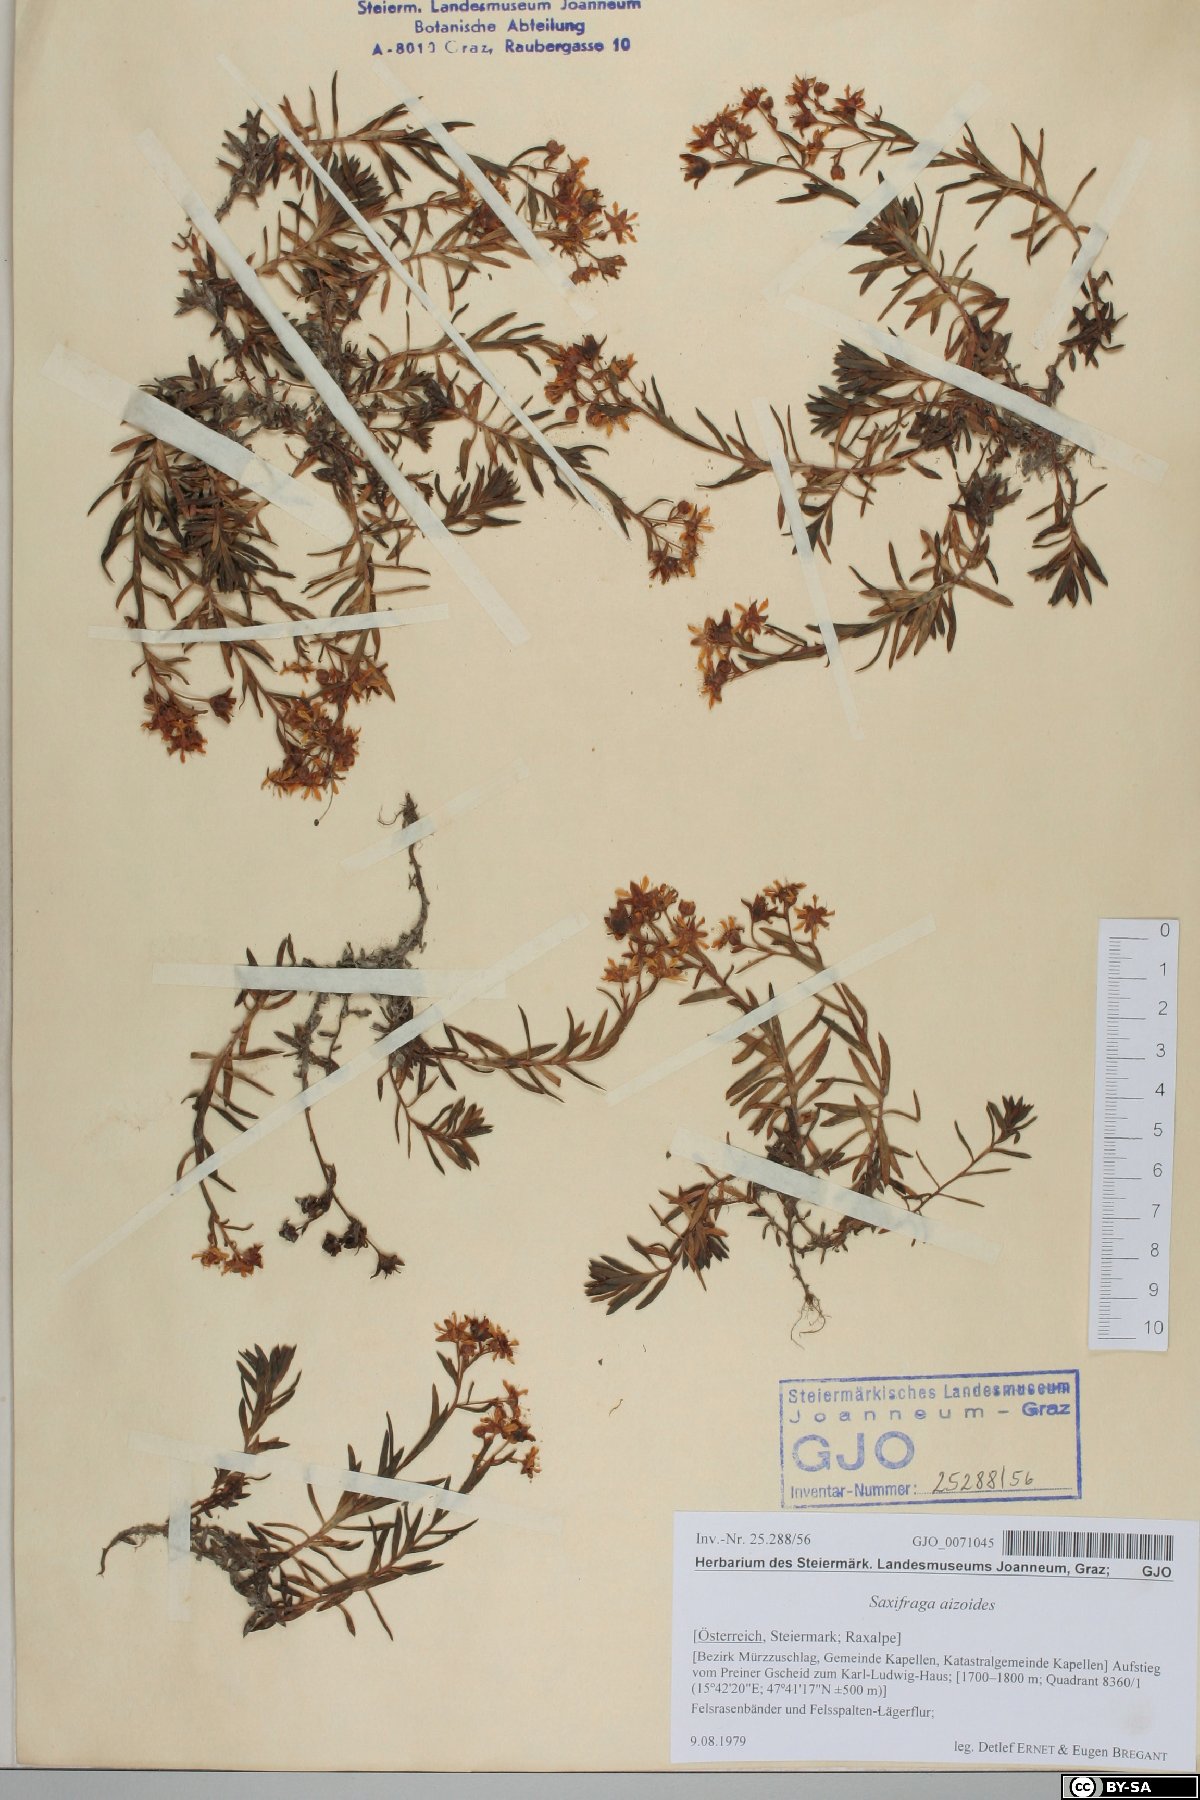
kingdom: Plantae
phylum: Tracheophyta
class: Magnoliopsida
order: Saxifragales
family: Saxifragaceae
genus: Saxifraga
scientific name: Saxifraga aizoides
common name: Yellow mountain saxifrage
